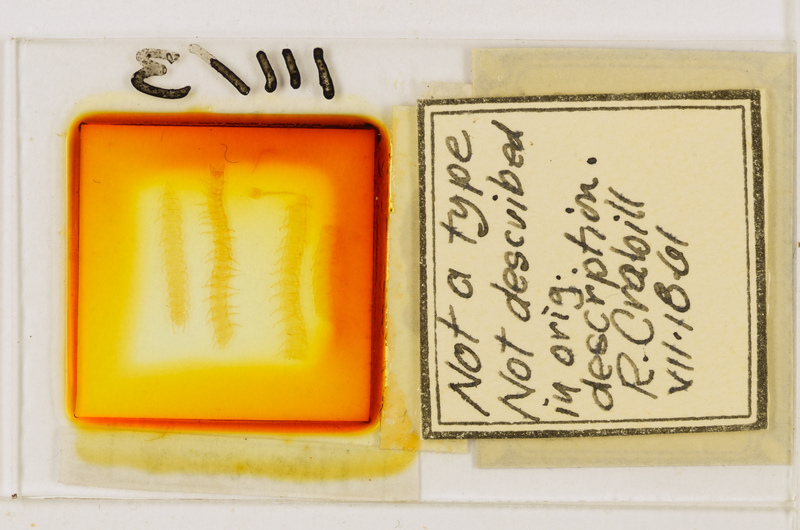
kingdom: Animalia
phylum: Arthropoda
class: Chilopoda
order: Geophilomorpha
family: Geophilidae
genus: Geoperingueyia
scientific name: Geoperingueyia dentata
